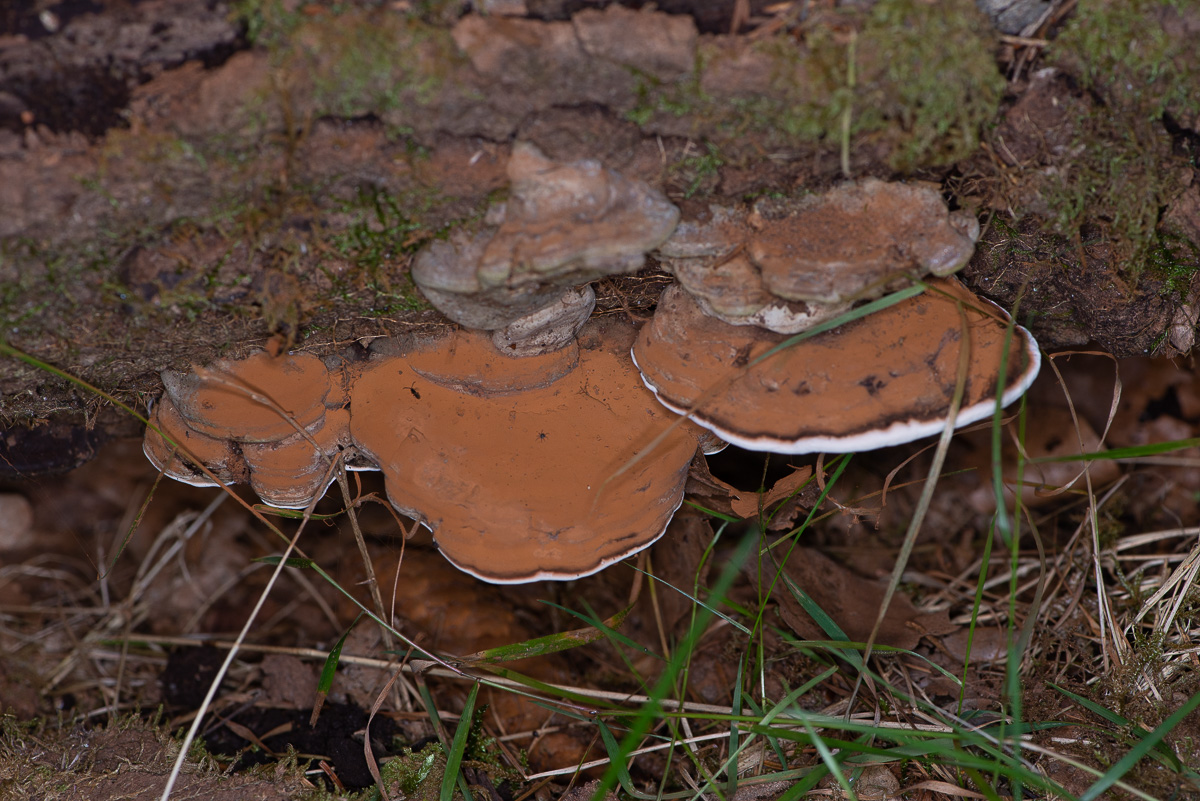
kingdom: Fungi
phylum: Basidiomycota
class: Agaricomycetes
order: Polyporales
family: Polyporaceae
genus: Ganoderma
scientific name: Ganoderma applanatum
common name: flad lakporesvamp
